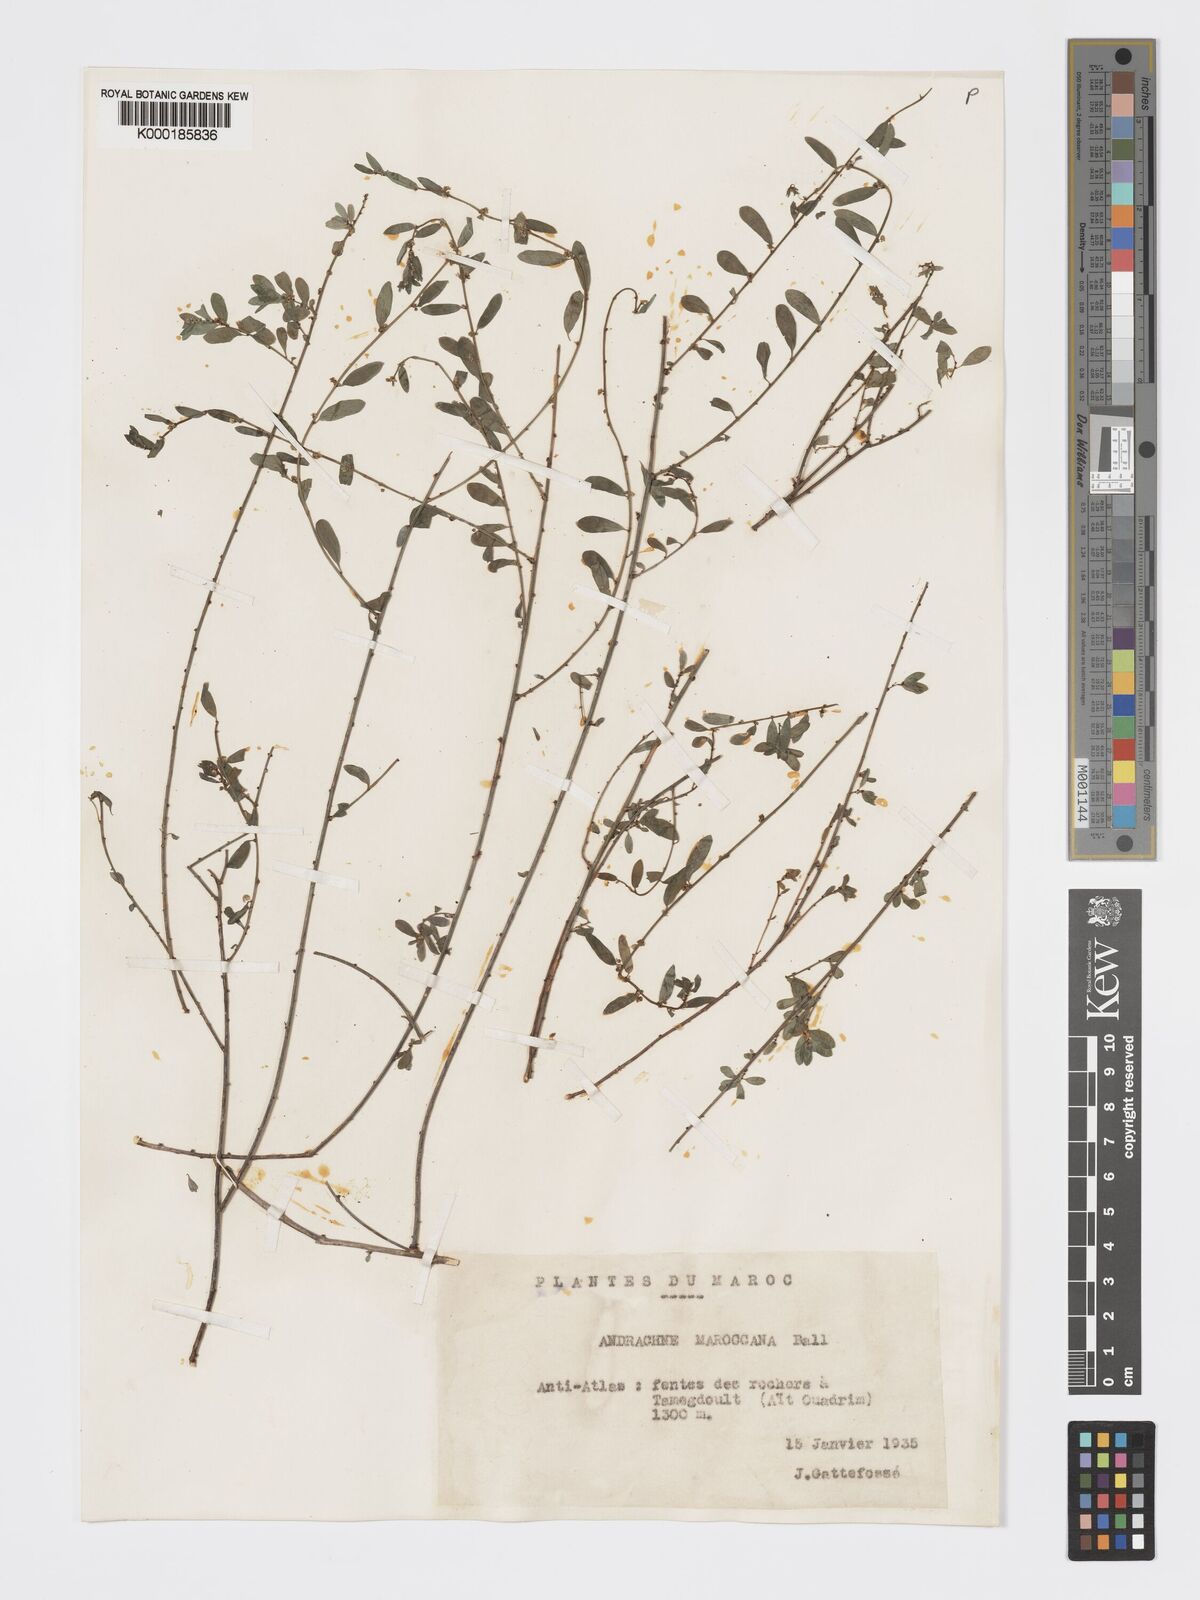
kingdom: Plantae
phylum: Tracheophyta
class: Magnoliopsida
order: Malpighiales
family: Phyllanthaceae
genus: Andrachne
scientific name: Andrachne maroccana
